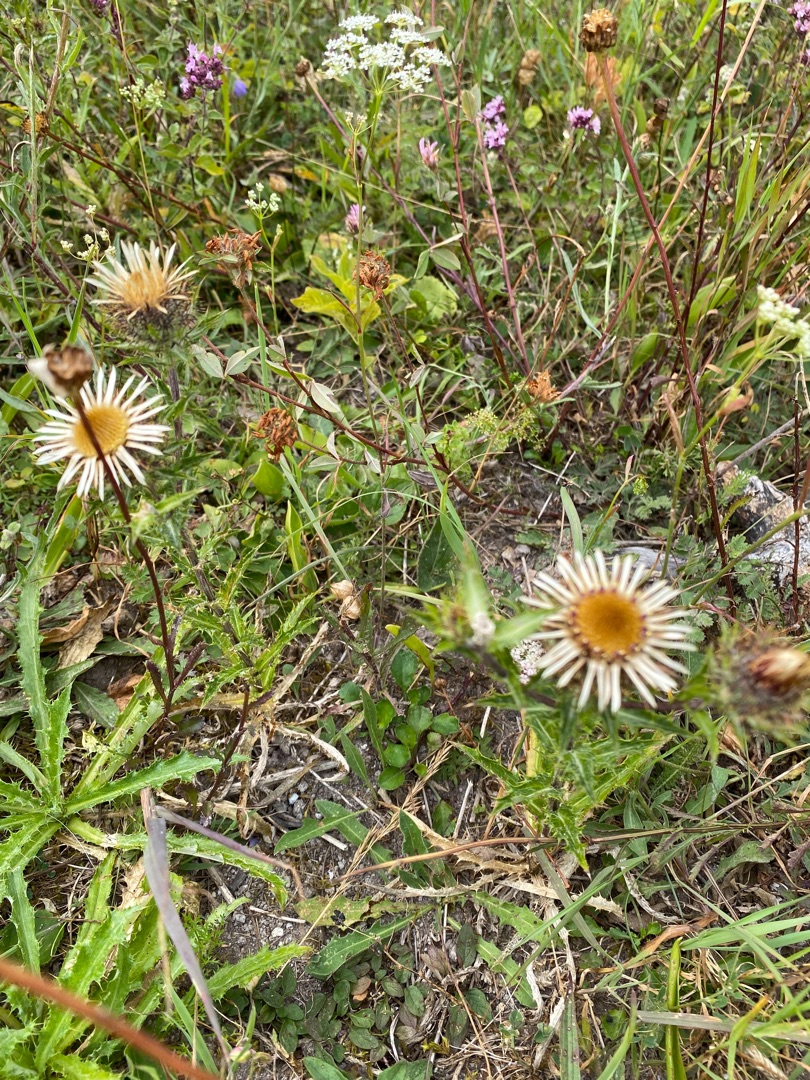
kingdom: Plantae
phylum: Tracheophyta
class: Magnoliopsida
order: Asterales
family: Asteraceae
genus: Carlina
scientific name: Carlina vulgaris
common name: Bakketidsel
